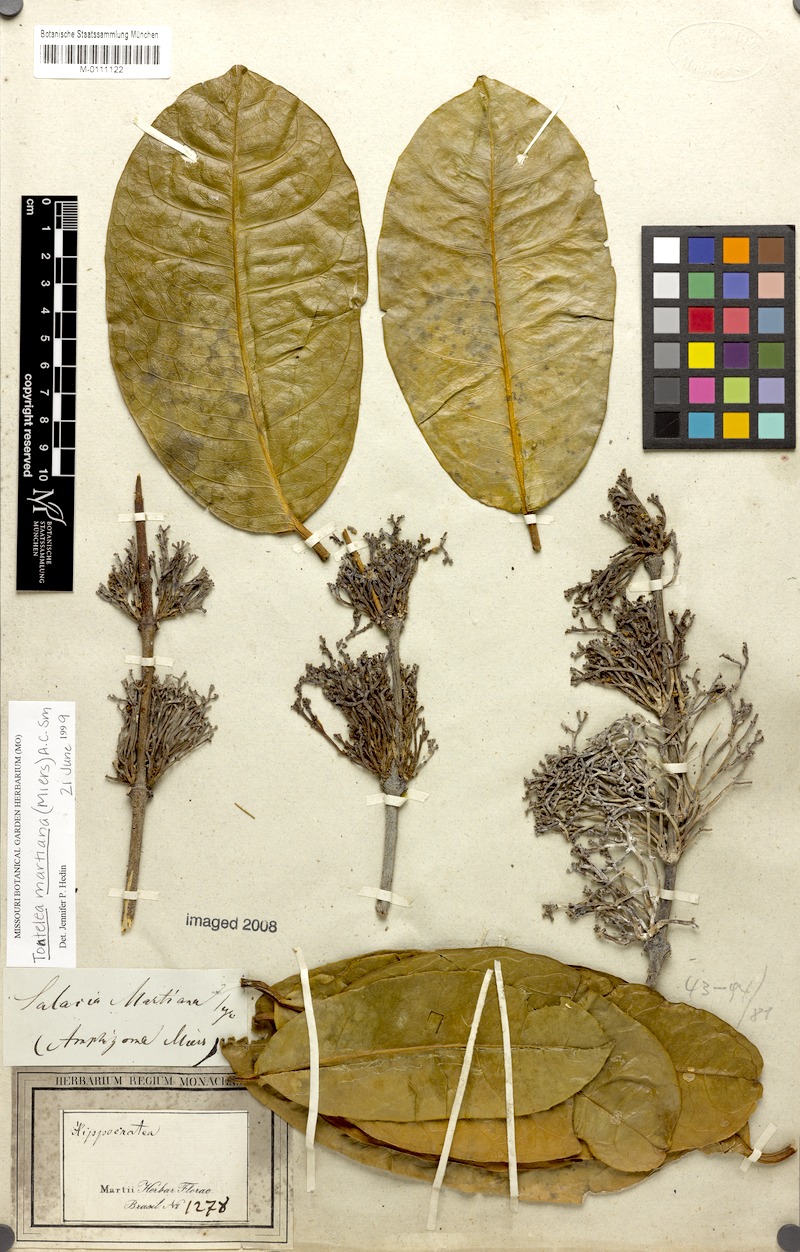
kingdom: Plantae
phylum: Tracheophyta
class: Magnoliopsida
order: Celastrales
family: Celastraceae
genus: Tontelea
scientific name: Tontelea martiana
